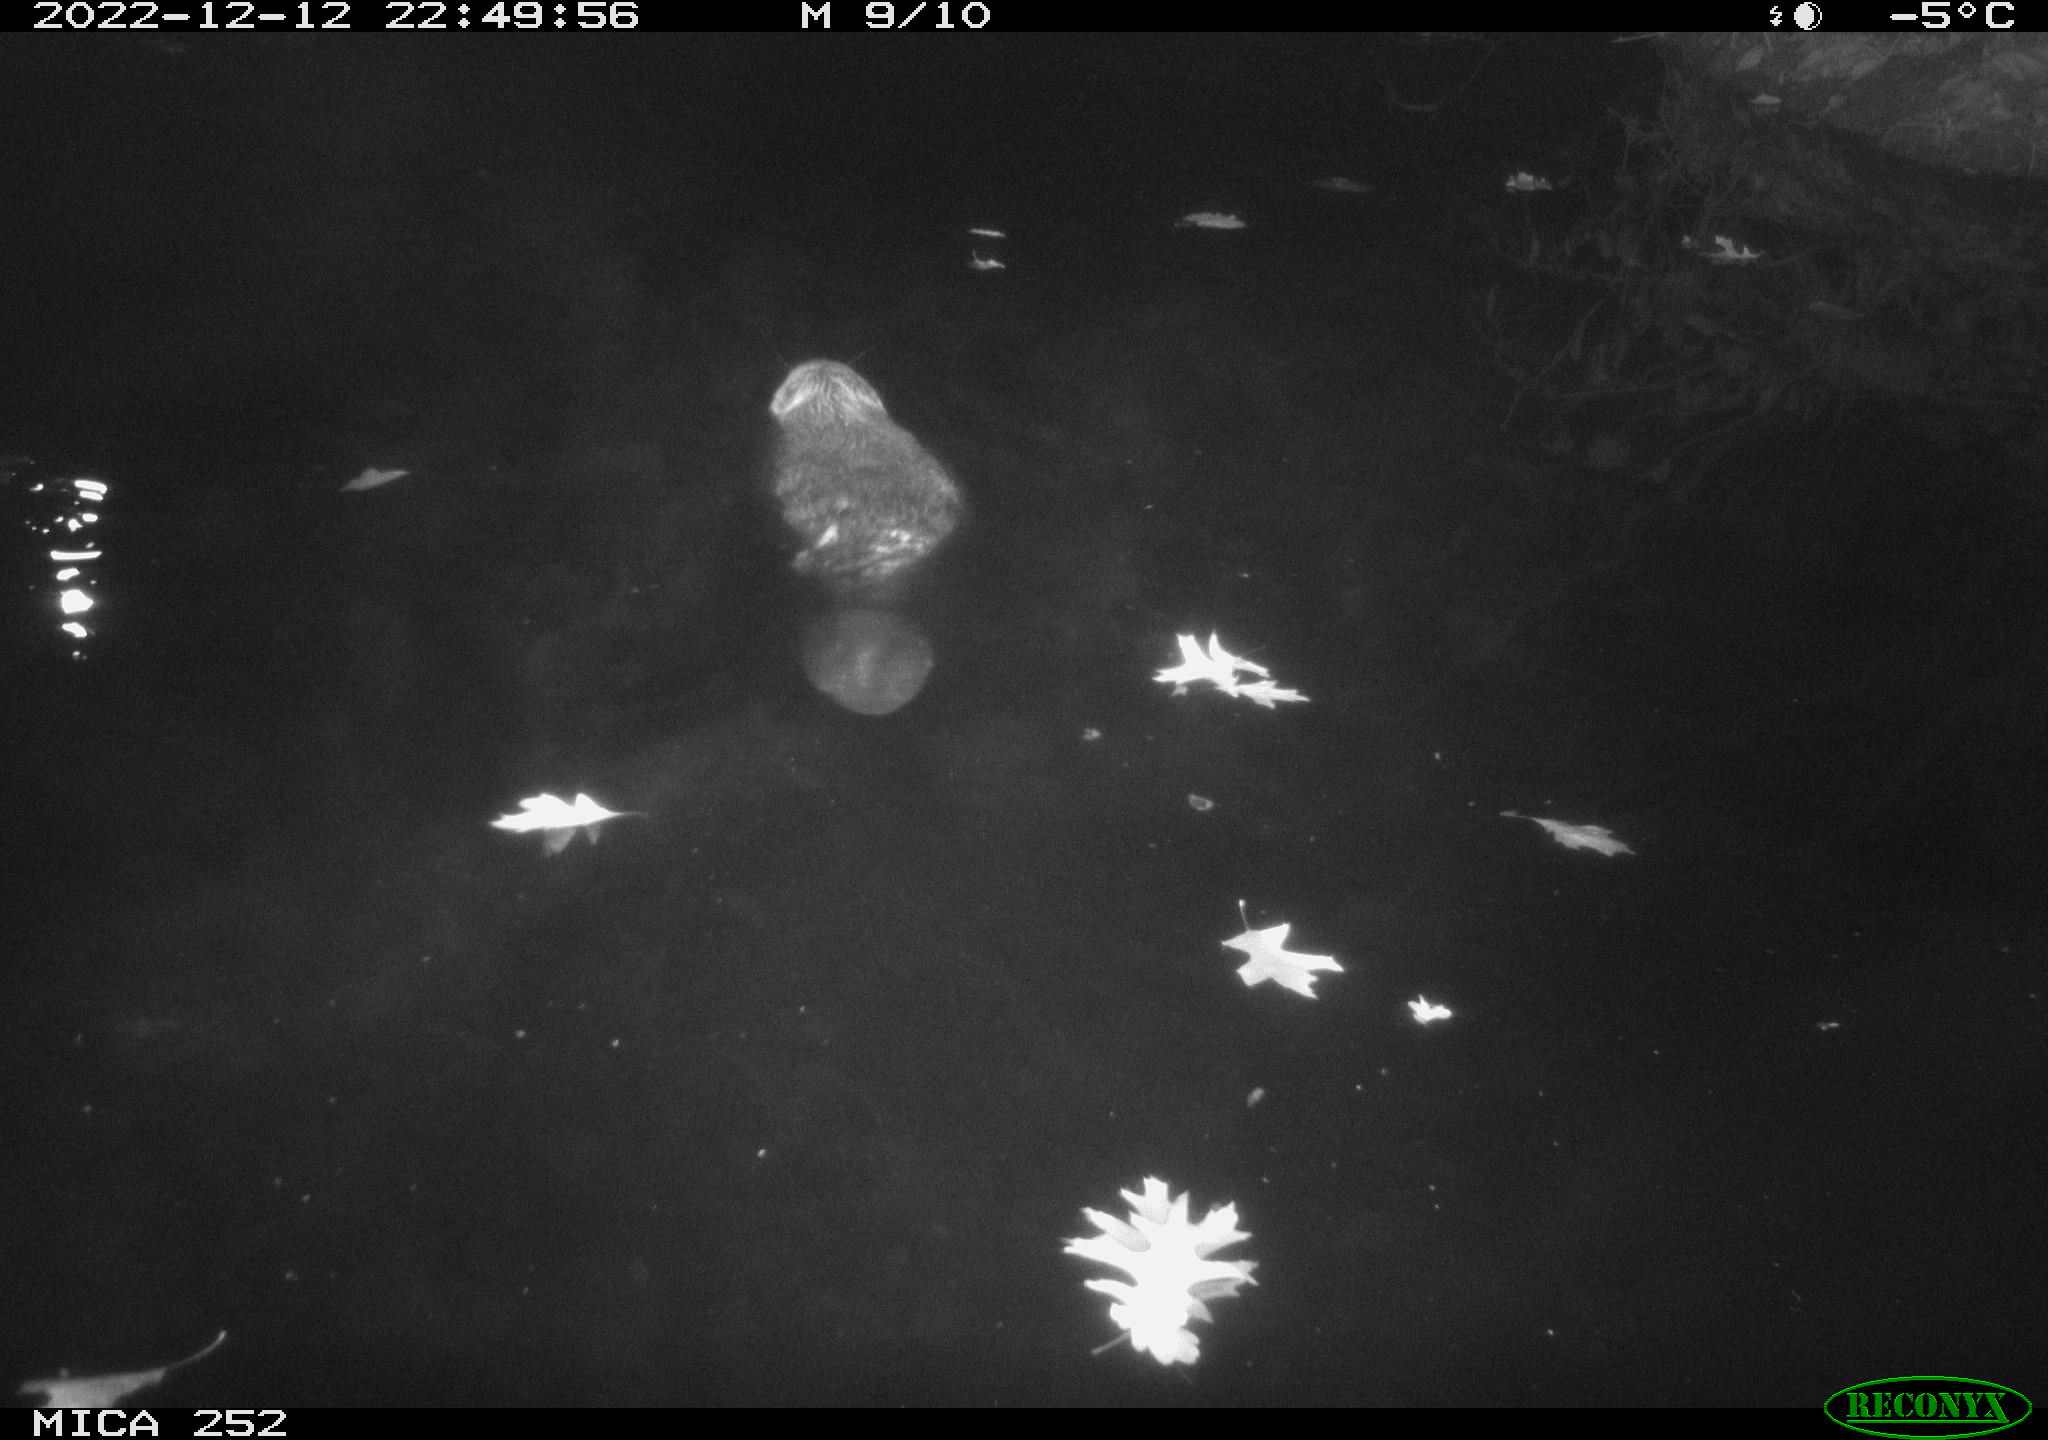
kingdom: Animalia
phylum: Chordata
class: Mammalia
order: Rodentia
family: Castoridae
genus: Castor
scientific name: Castor fiber
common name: Eurasian beaver
